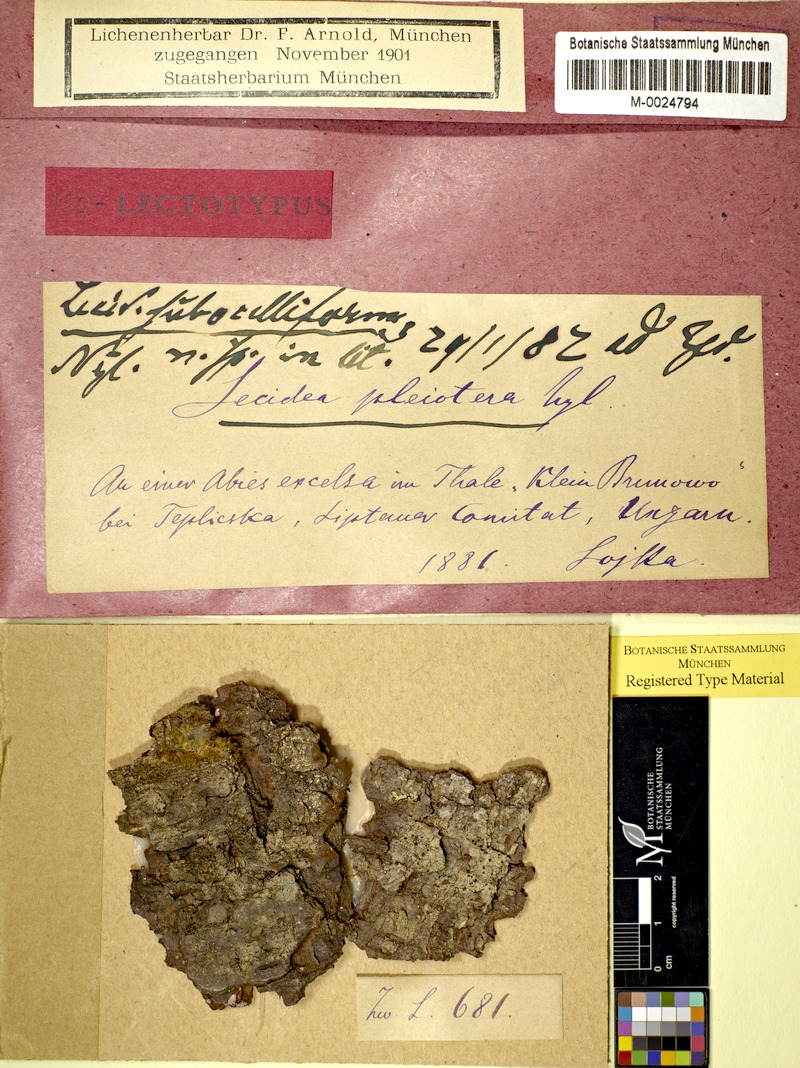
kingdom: Fungi
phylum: Ascomycota
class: Lecanoromycetes
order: Lecideales
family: Lecideaceae
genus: Lecidea
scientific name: Lecidea betulicola
